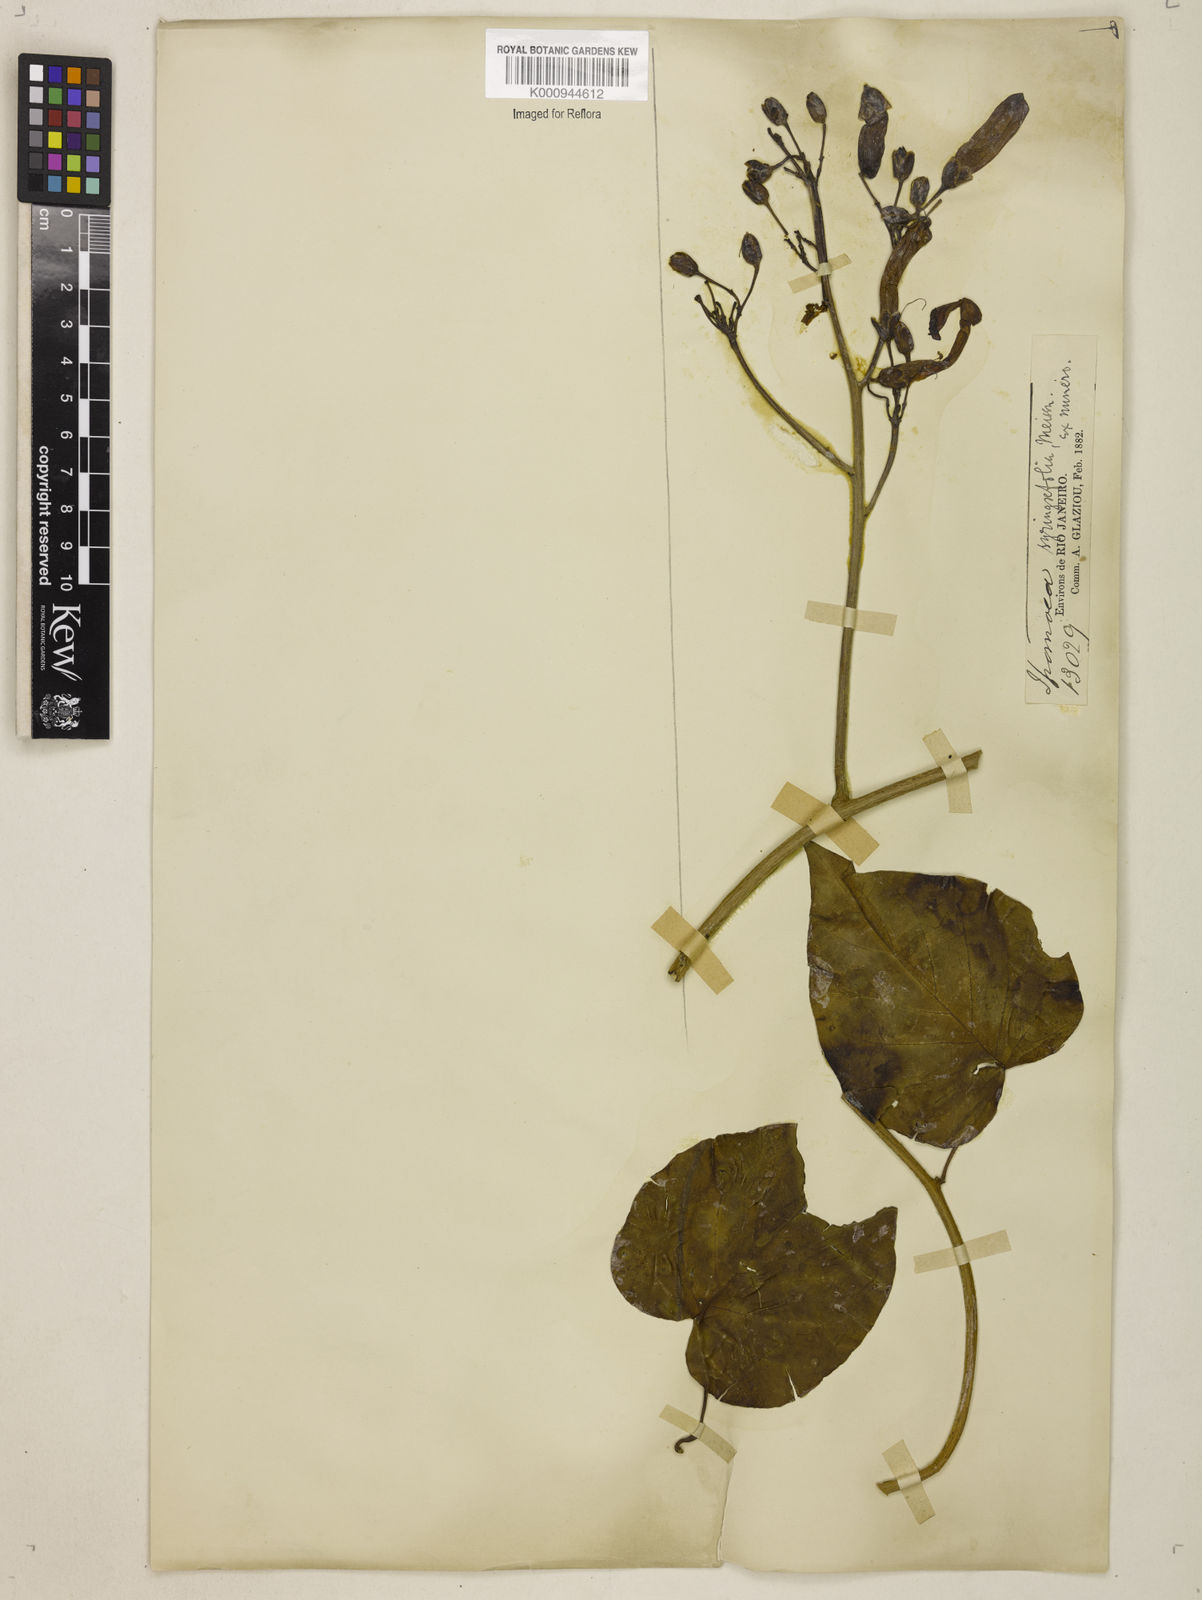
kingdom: Plantae
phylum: Tracheophyta
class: Magnoliopsida
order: Solanales
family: Convolvulaceae
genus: Ipomoea
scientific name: Ipomoea
